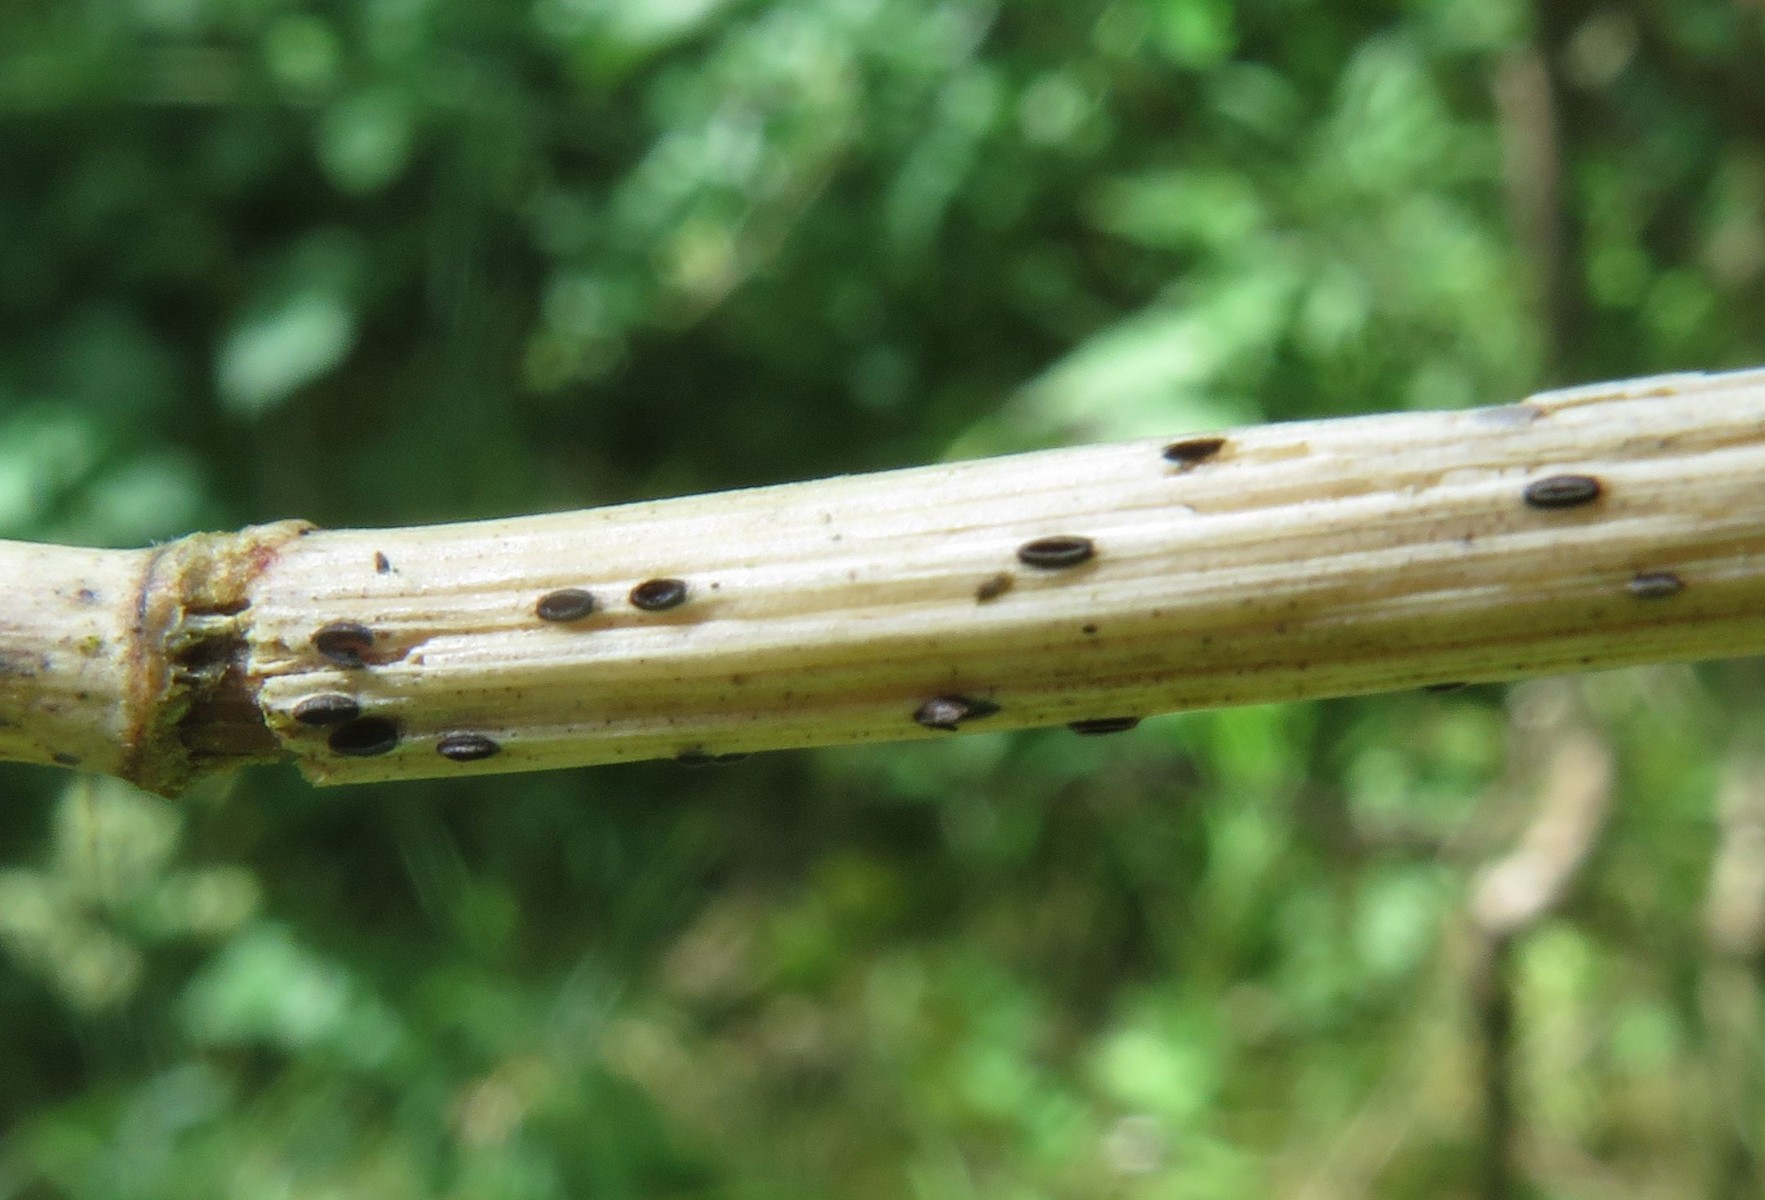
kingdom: Fungi
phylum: Ascomycota
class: Leotiomycetes
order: Rhytismatales
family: Rhytismataceae
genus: Lophodermium
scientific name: Lophodermium
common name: fureplet
